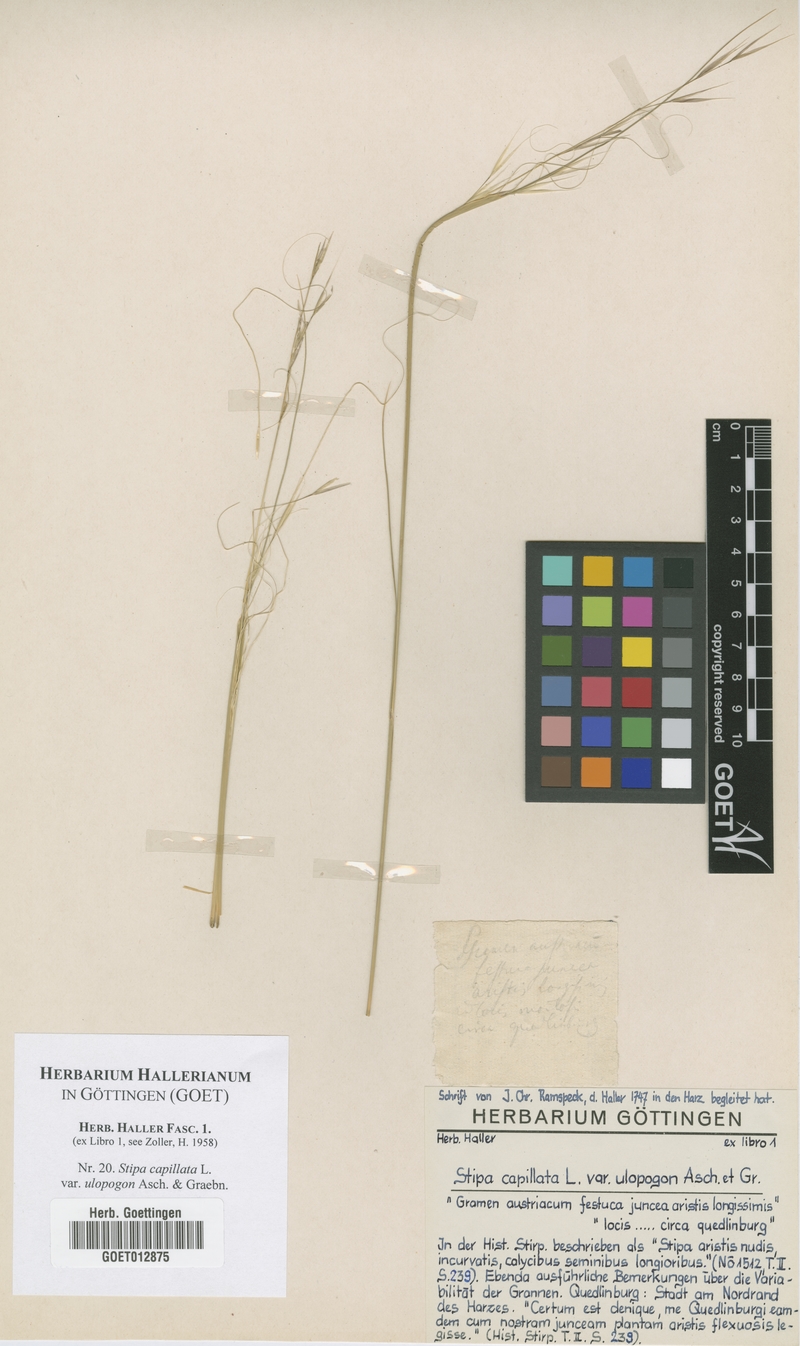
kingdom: Plantae
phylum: Tracheophyta
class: Liliopsida
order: Poales
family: Poaceae
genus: Stipa
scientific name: Stipa capillata
